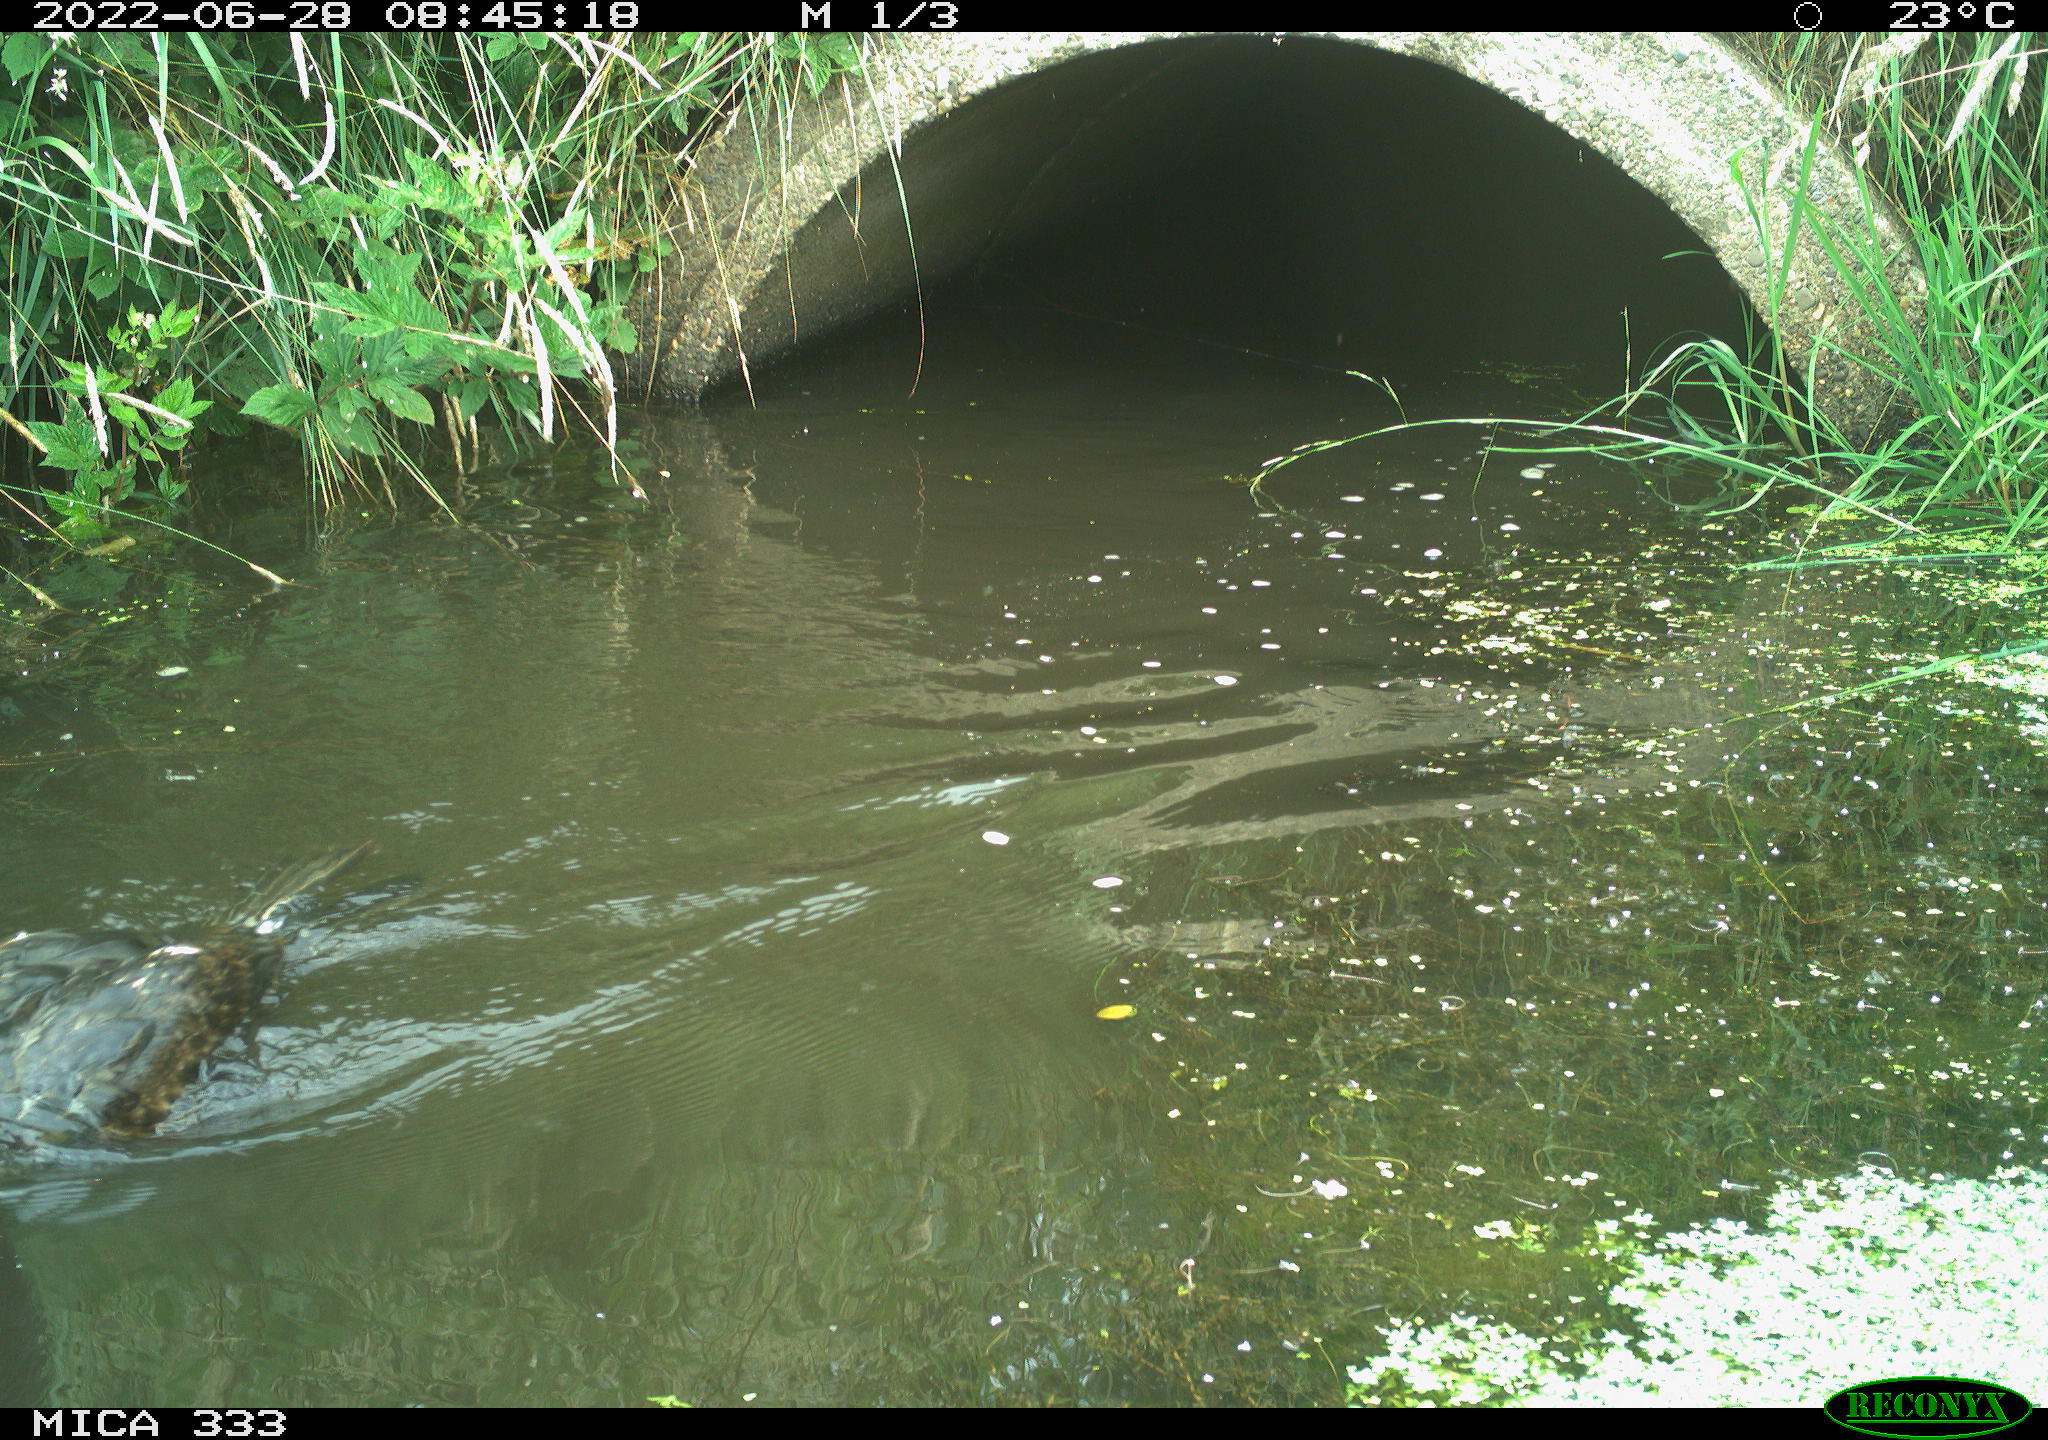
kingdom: Animalia
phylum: Chordata
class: Aves
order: Suliformes
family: Phalacrocoracidae
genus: Phalacrocorax
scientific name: Phalacrocorax carbo
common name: Great cormorant
